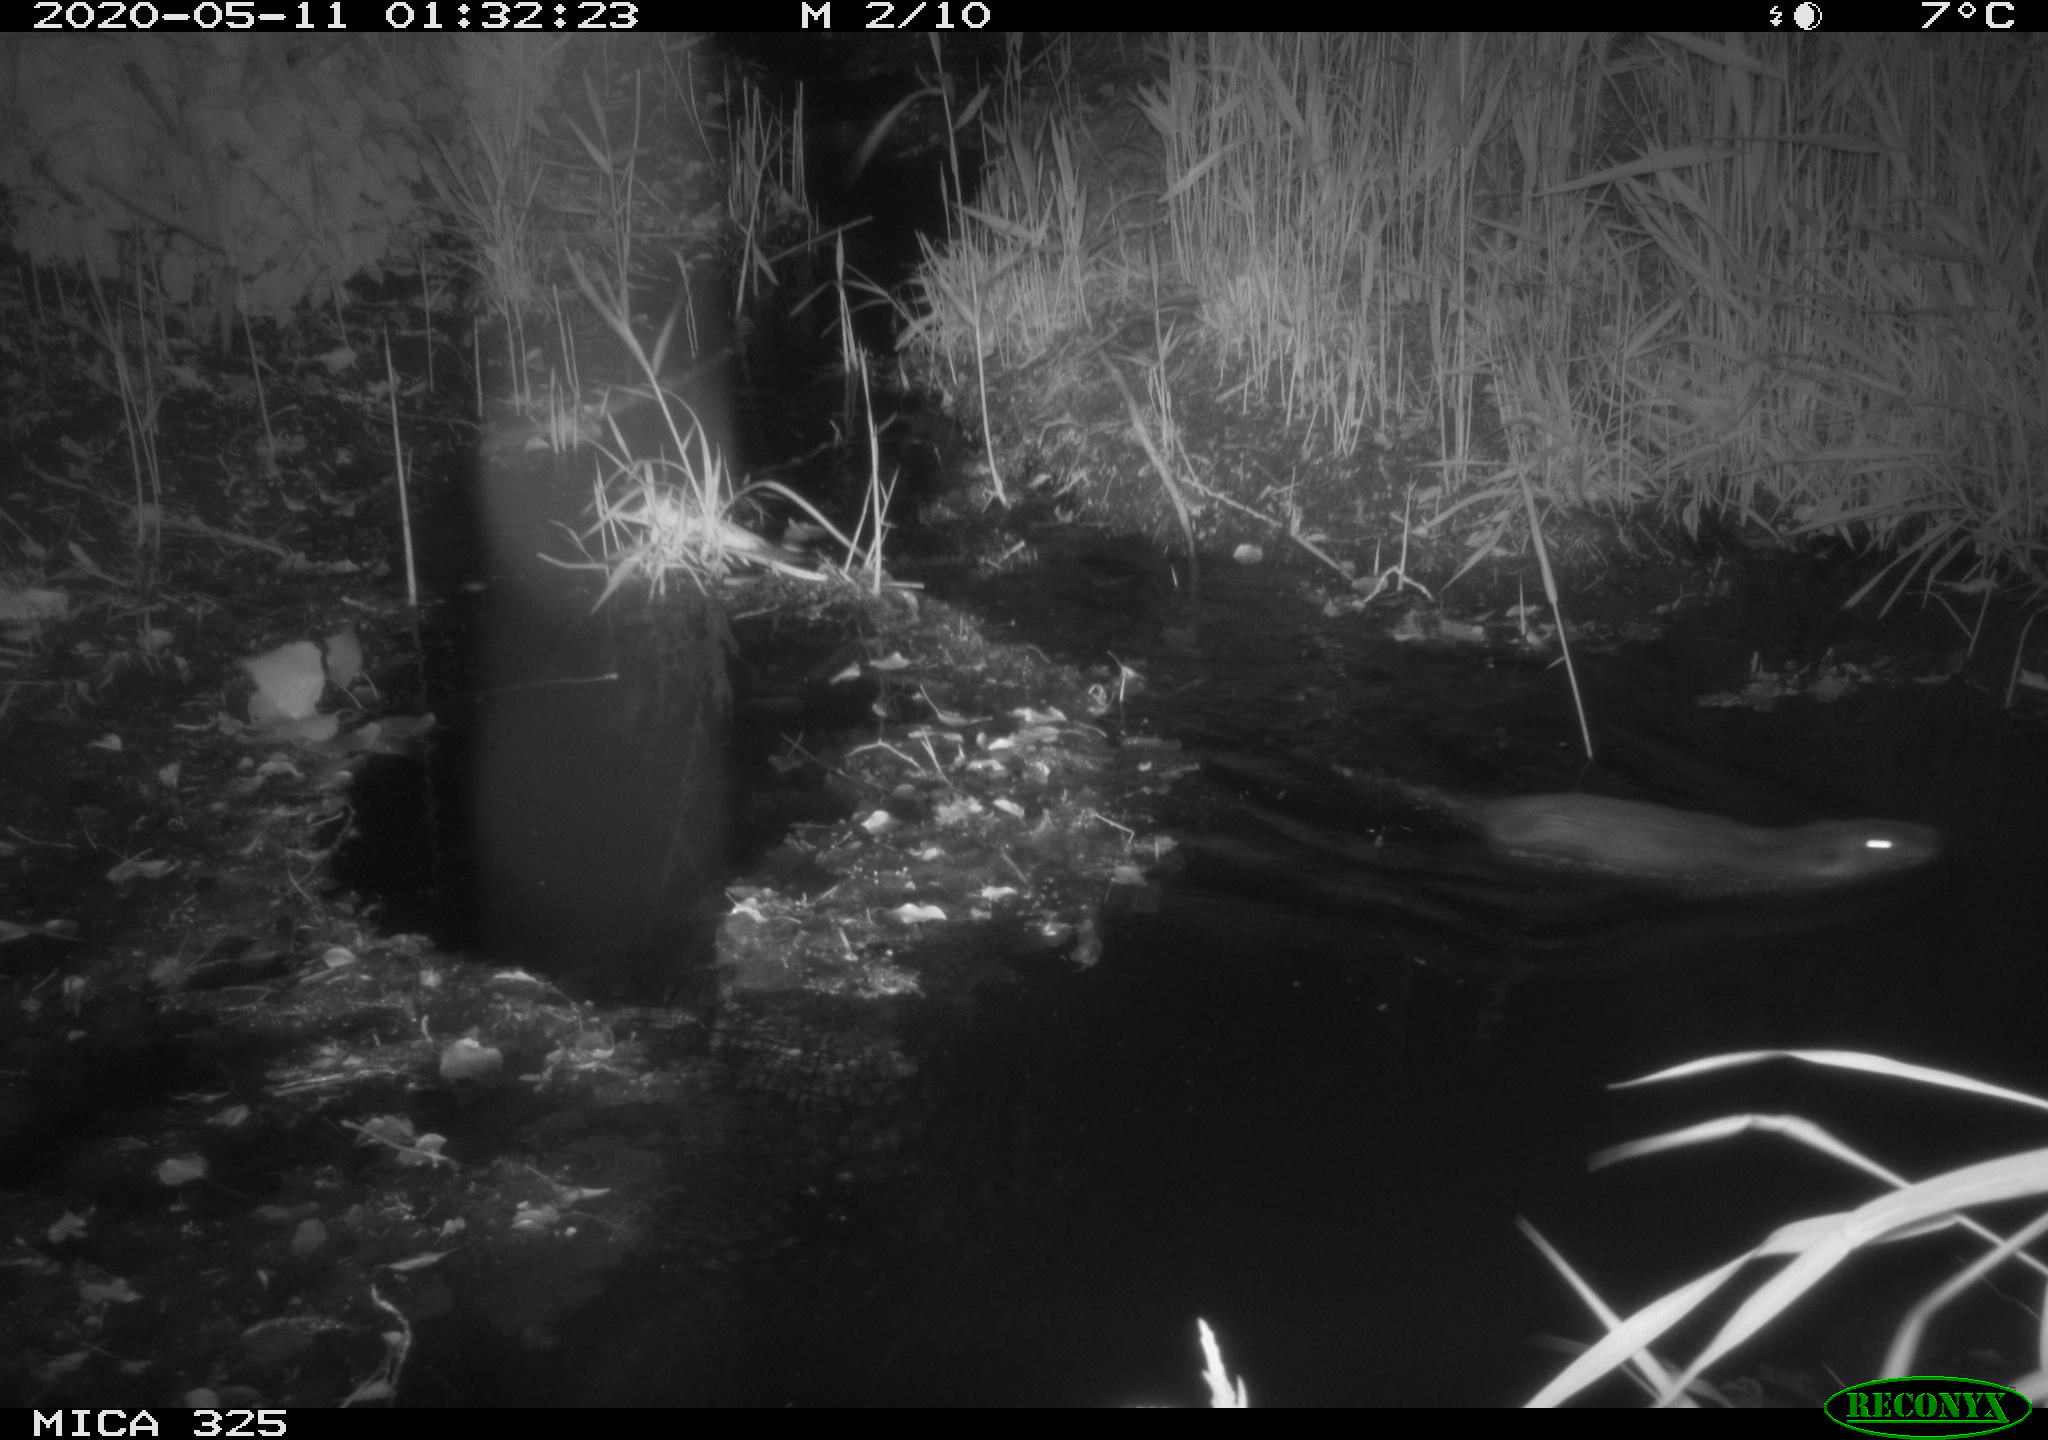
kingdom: Animalia
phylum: Chordata
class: Mammalia
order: Rodentia
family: Myocastoridae
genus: Myocastor
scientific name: Myocastor coypus
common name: Coypu
